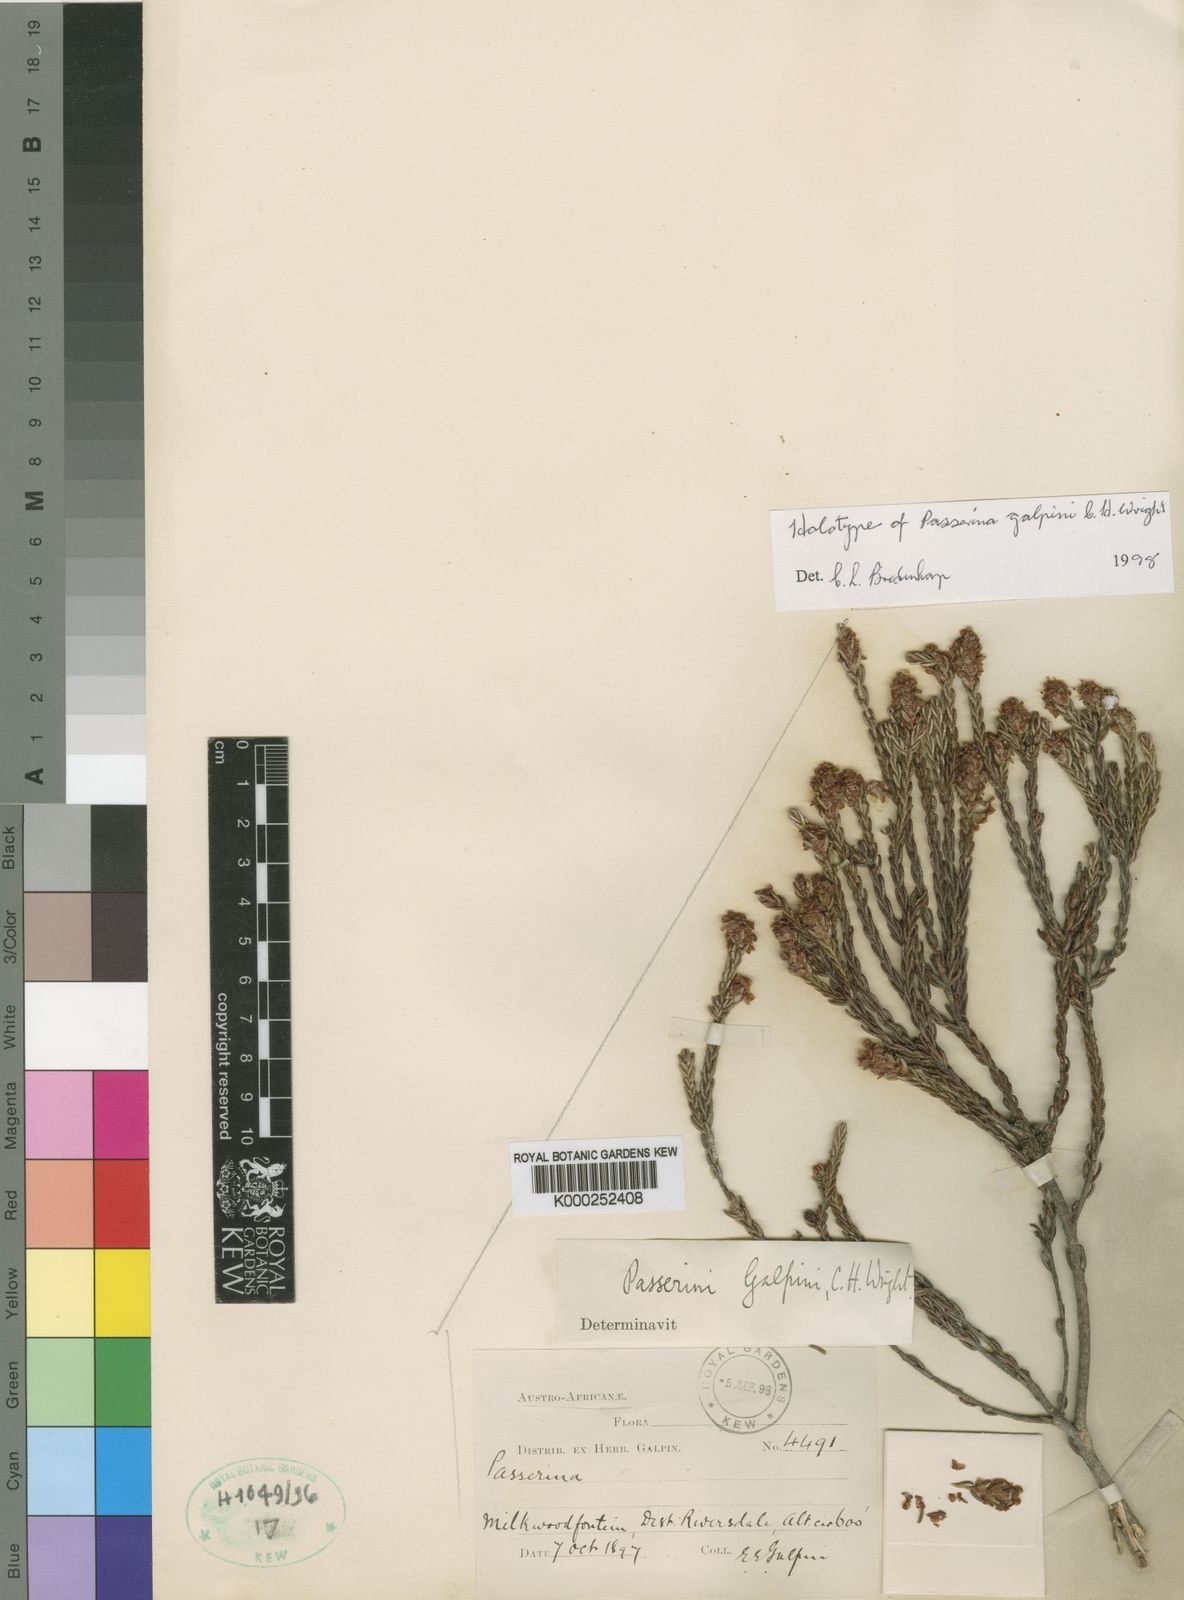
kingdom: Plantae
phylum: Tracheophyta
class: Magnoliopsida
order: Malvales
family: Thymelaeaceae
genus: Passerina
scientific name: Passerina galpinii
